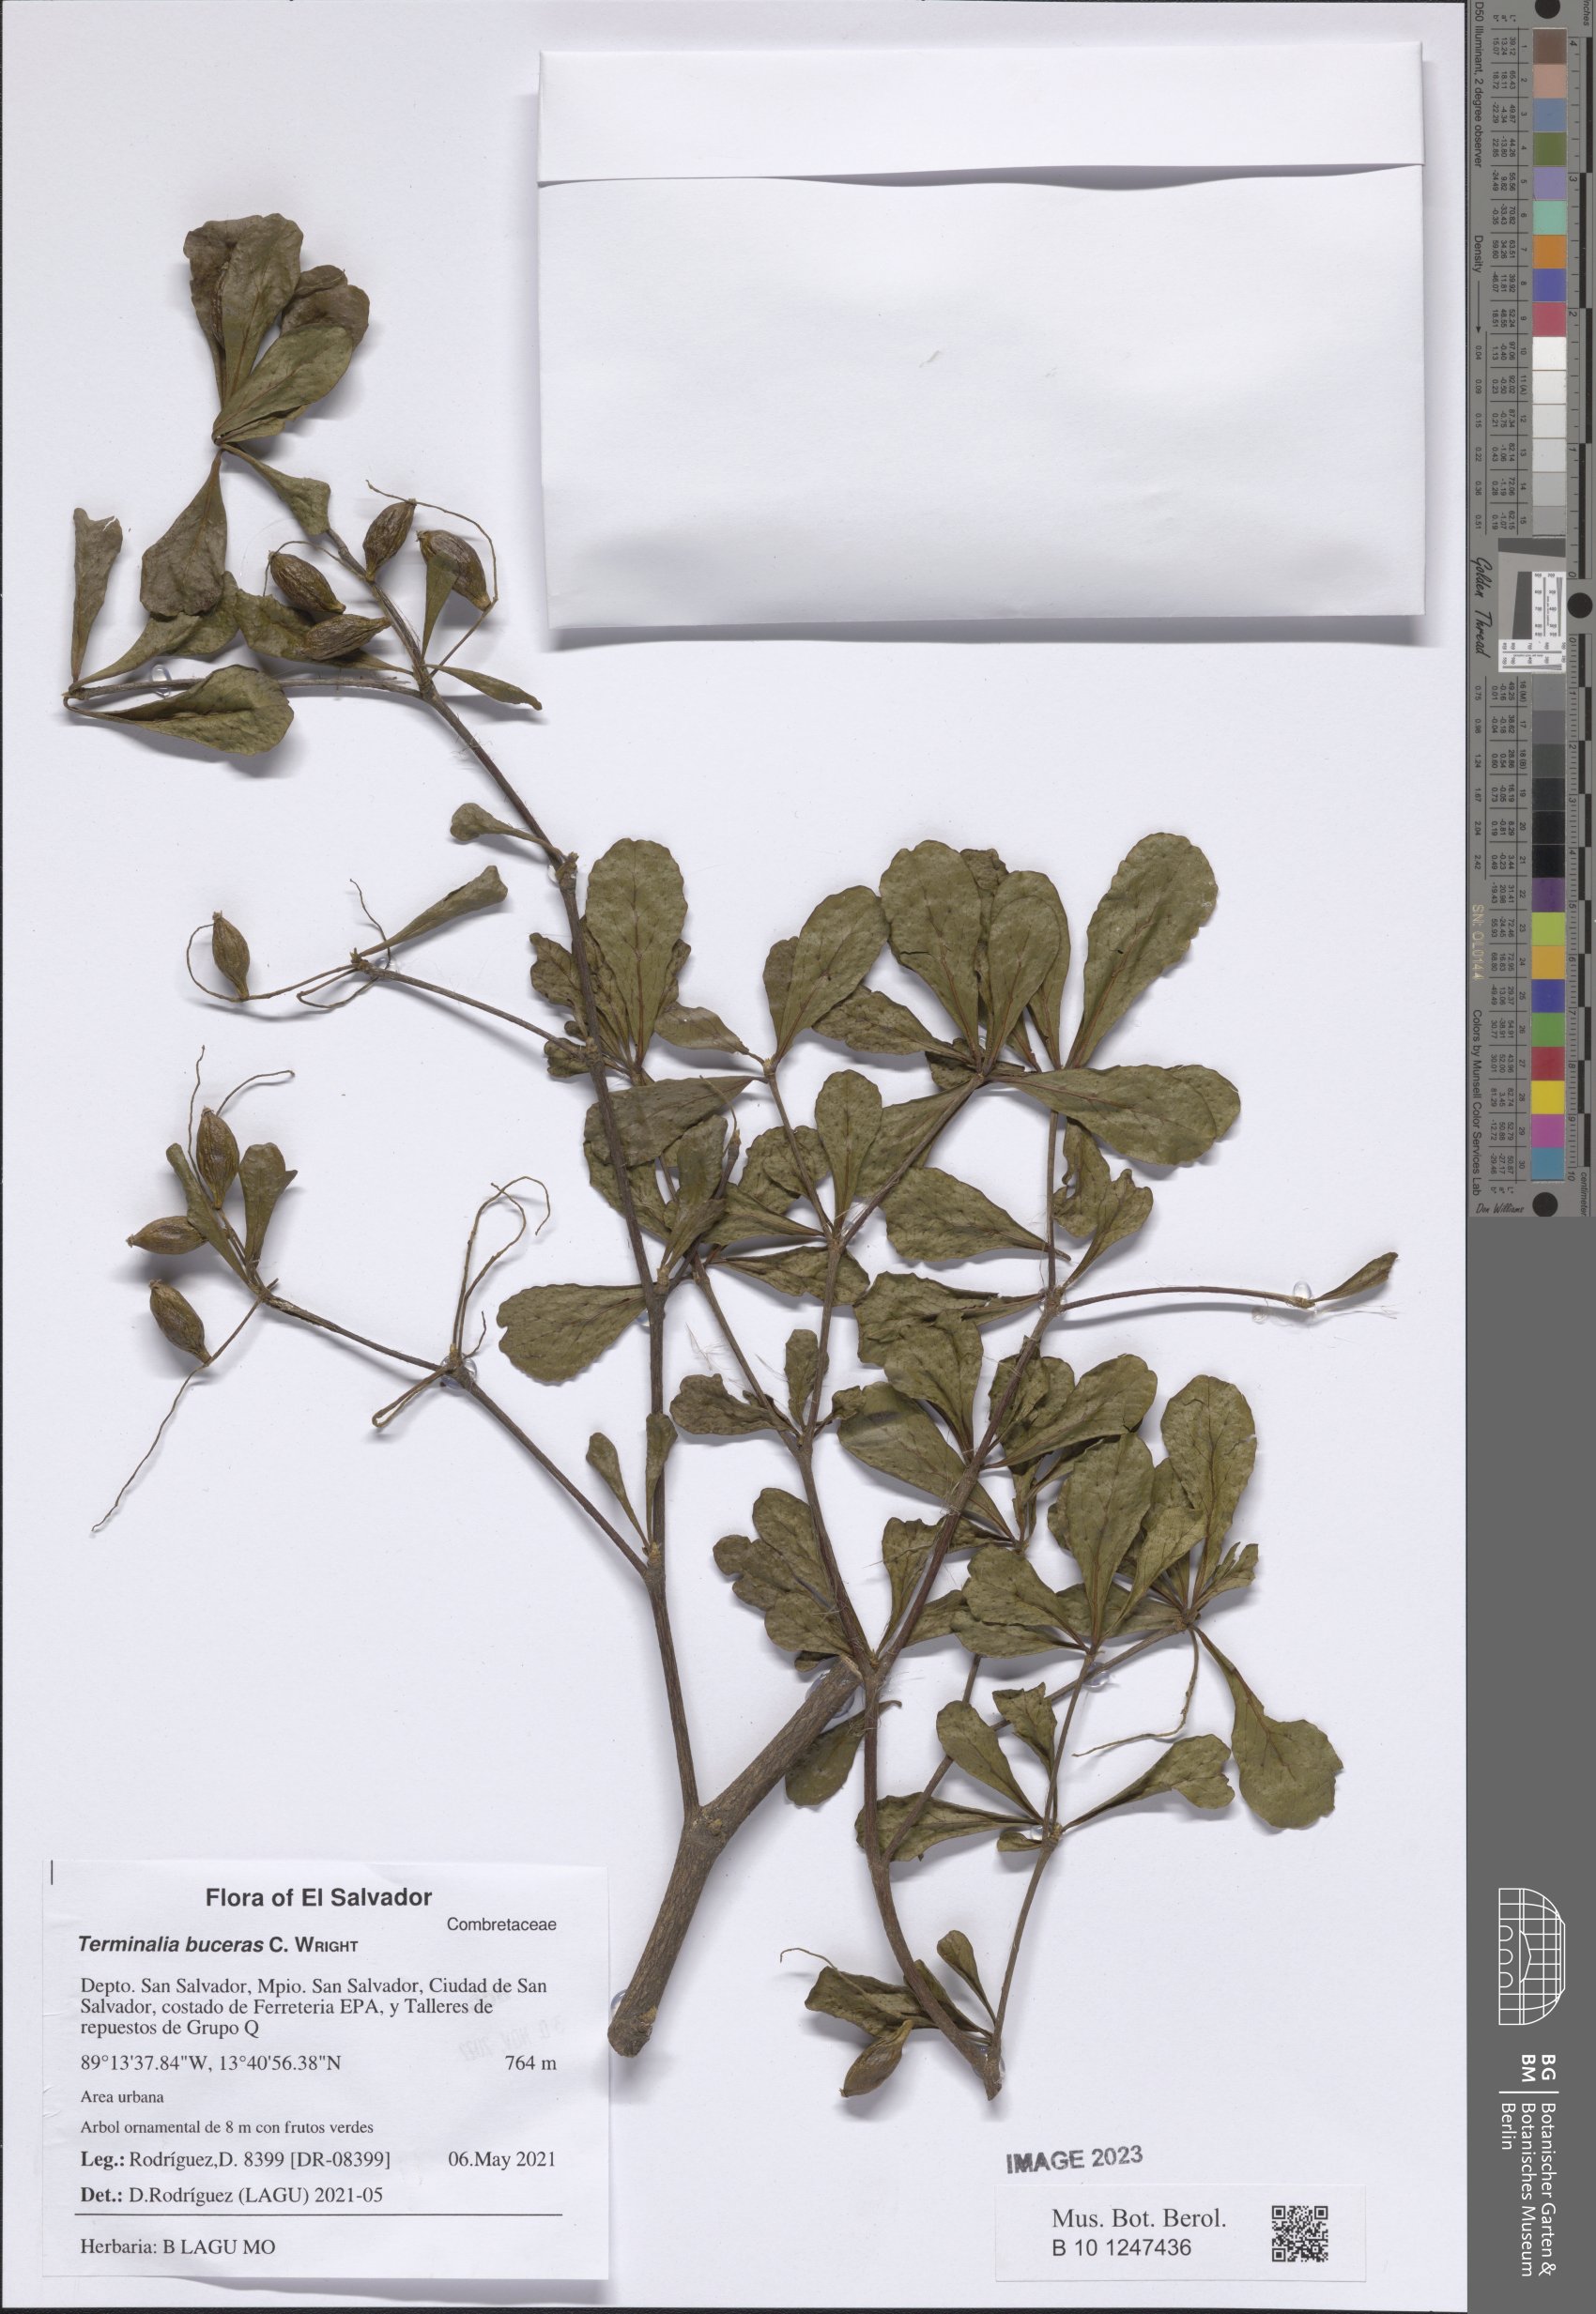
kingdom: Plantae
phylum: Tracheophyta
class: Magnoliopsida
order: Myrtales
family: Combretaceae
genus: Terminalia
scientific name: Terminalia buceras
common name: Black-olive
